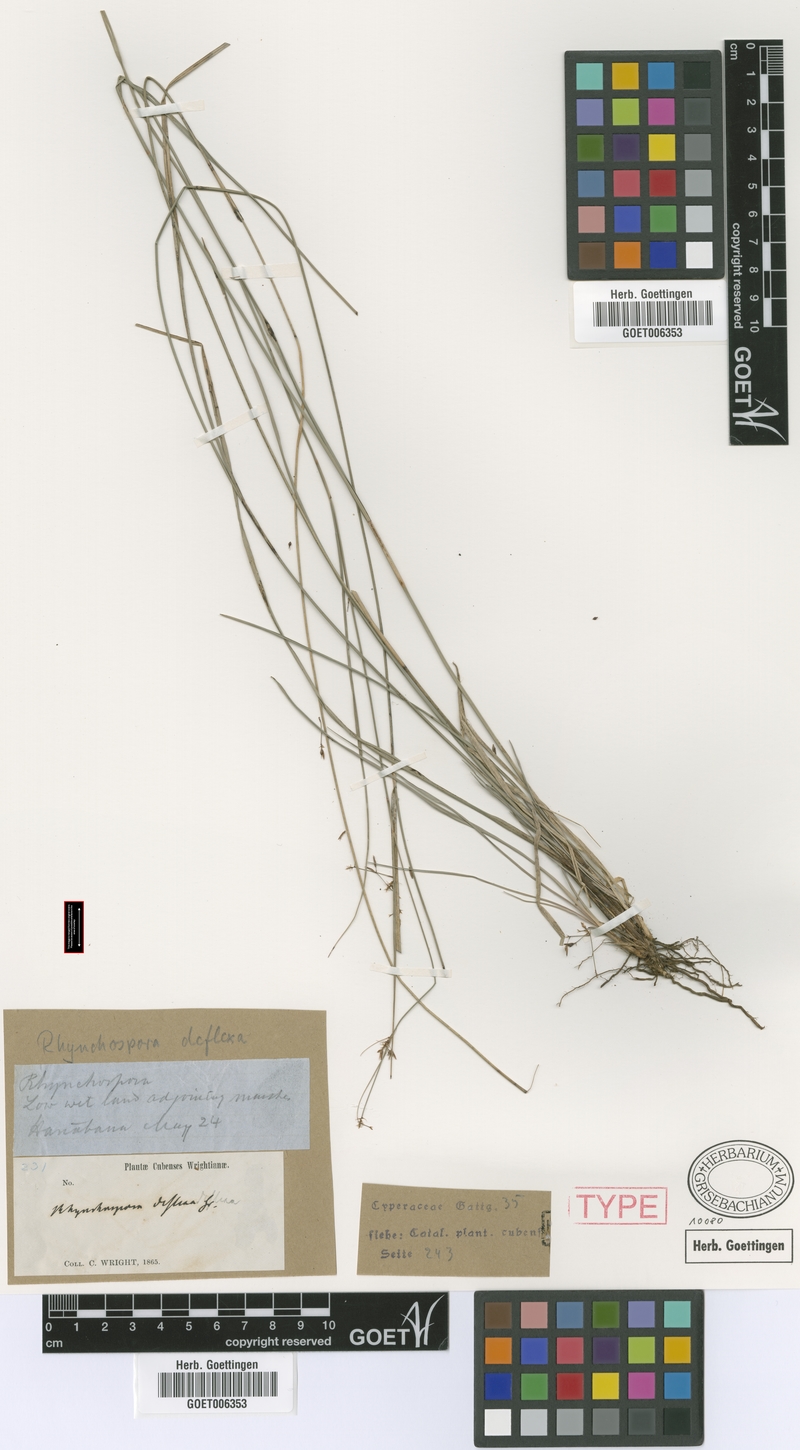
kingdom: Plantae
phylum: Tracheophyta
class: Liliopsida
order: Poales
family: Cyperaceae
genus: Rhynchospora
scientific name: Rhynchospora cubensis
